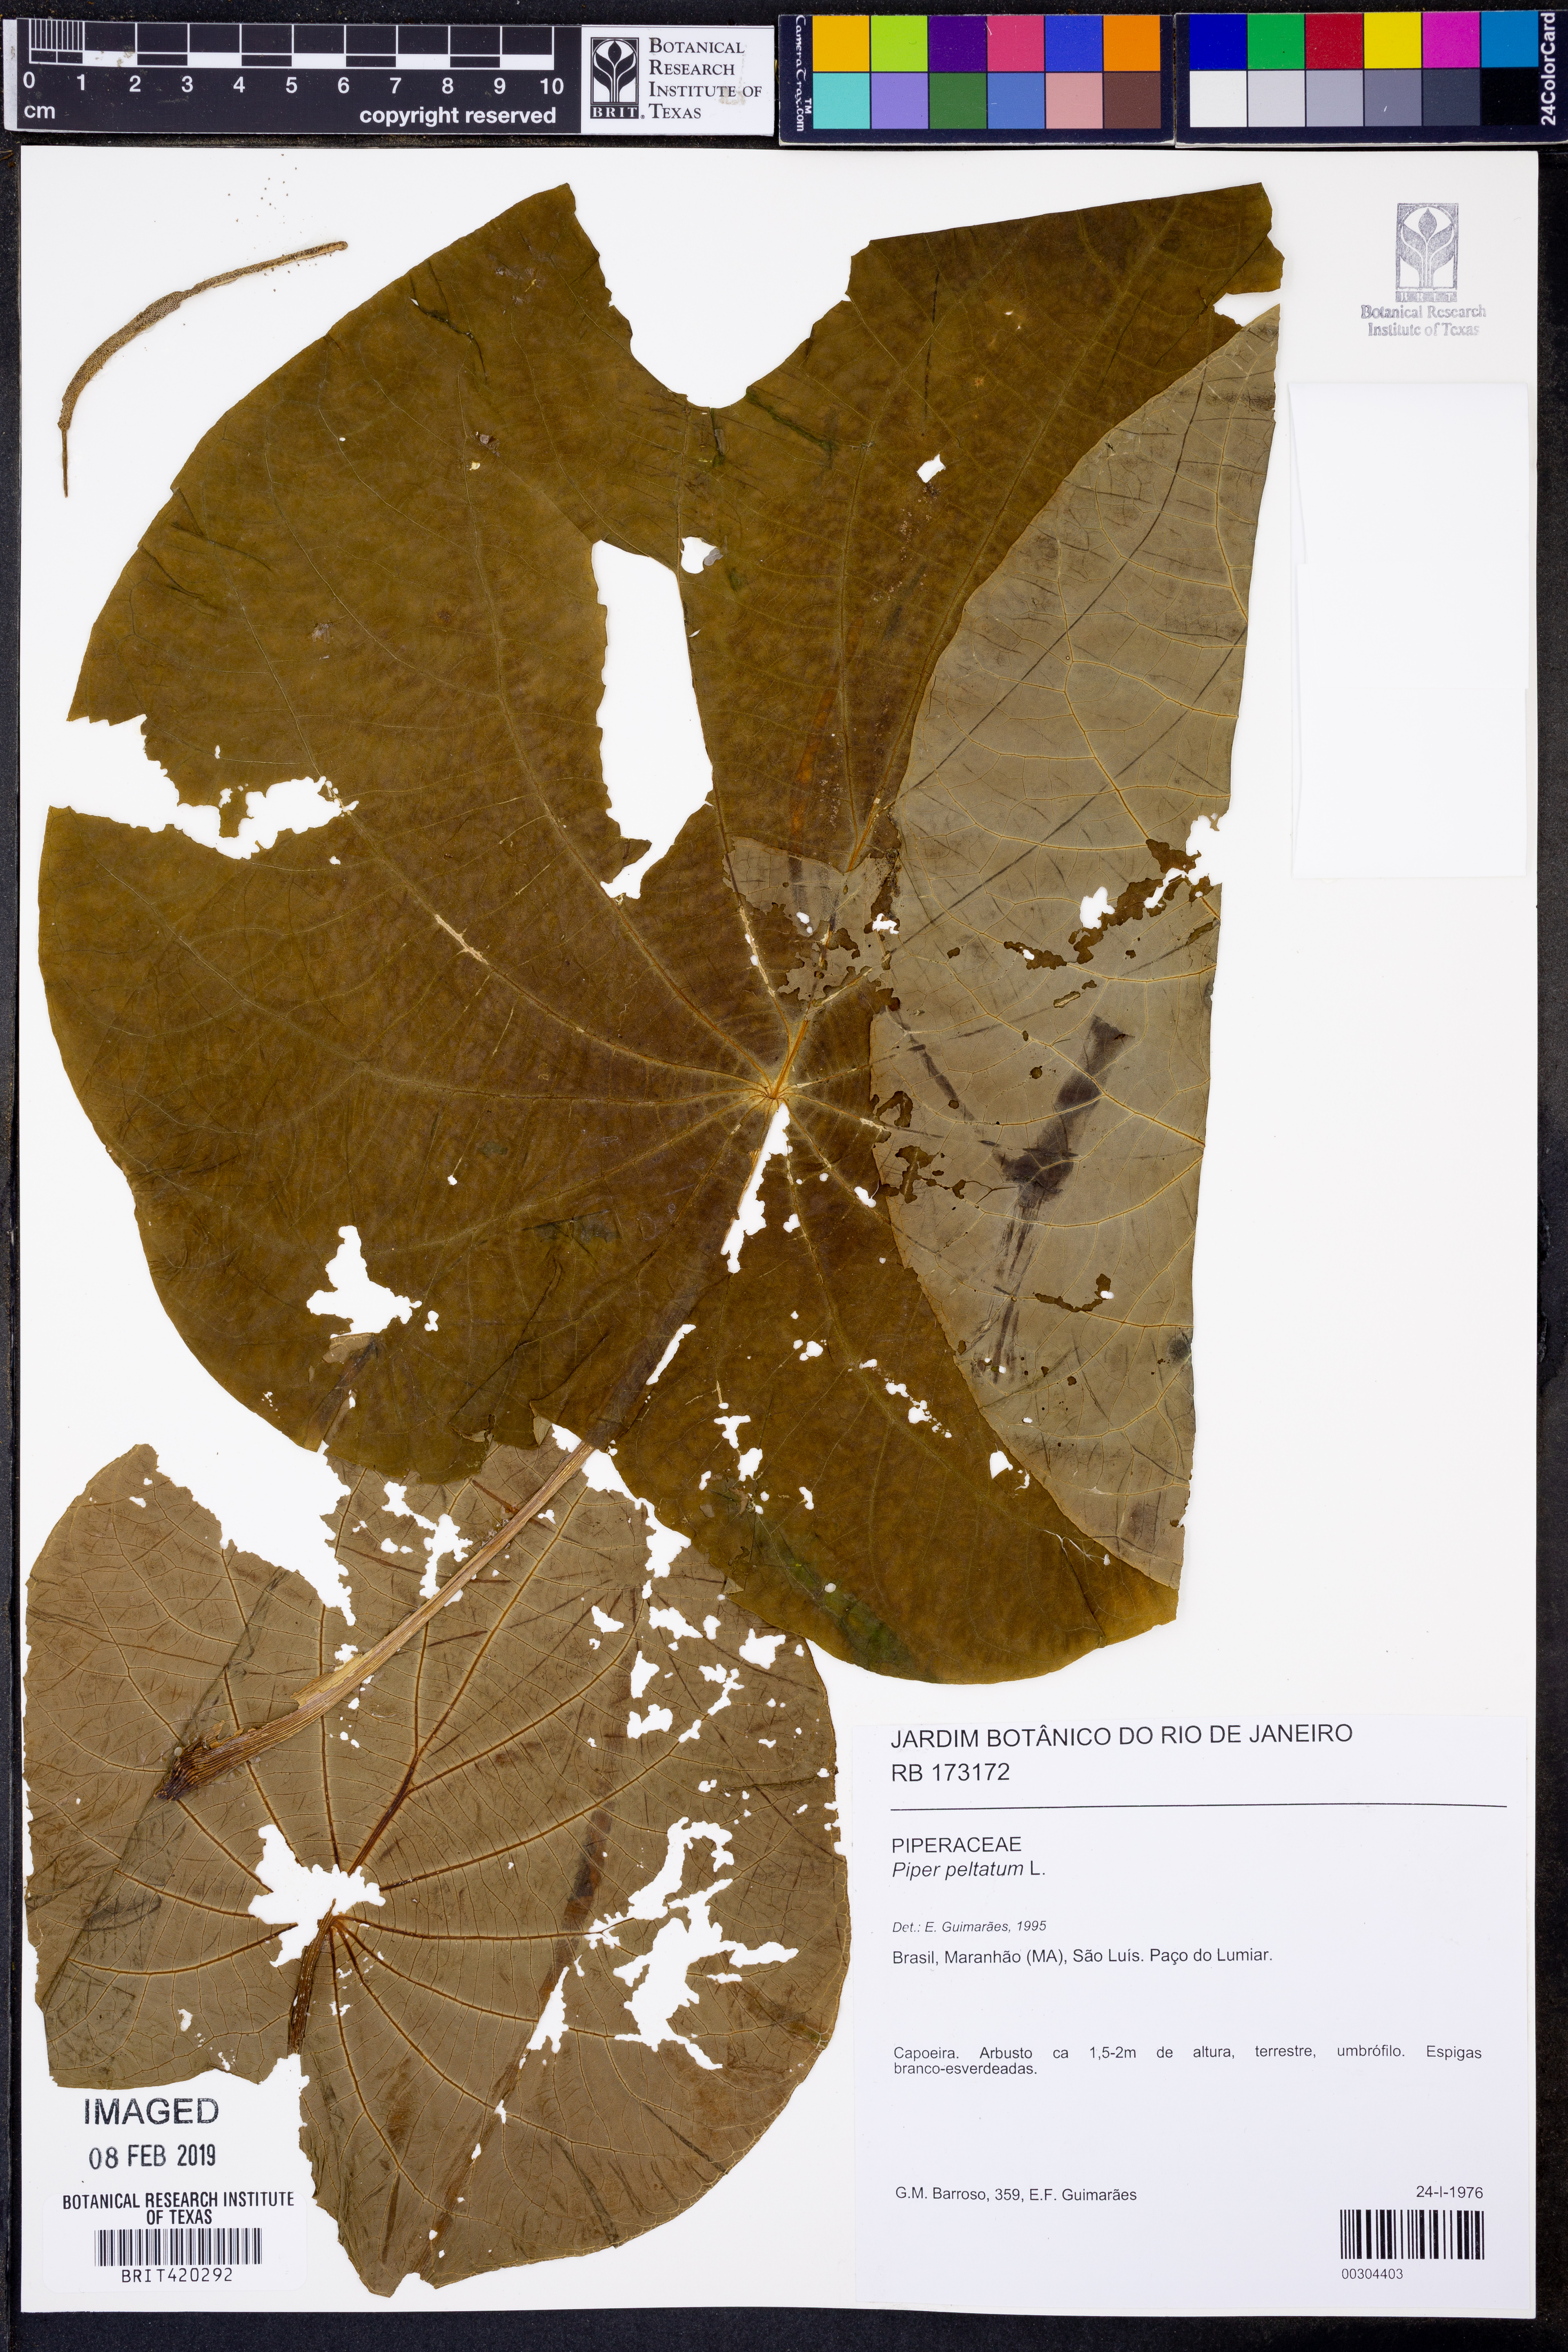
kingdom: Plantae
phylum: Tracheophyta
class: Magnoliopsida
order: Piperales
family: Piperaceae
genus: Piper
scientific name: Piper peltatum
